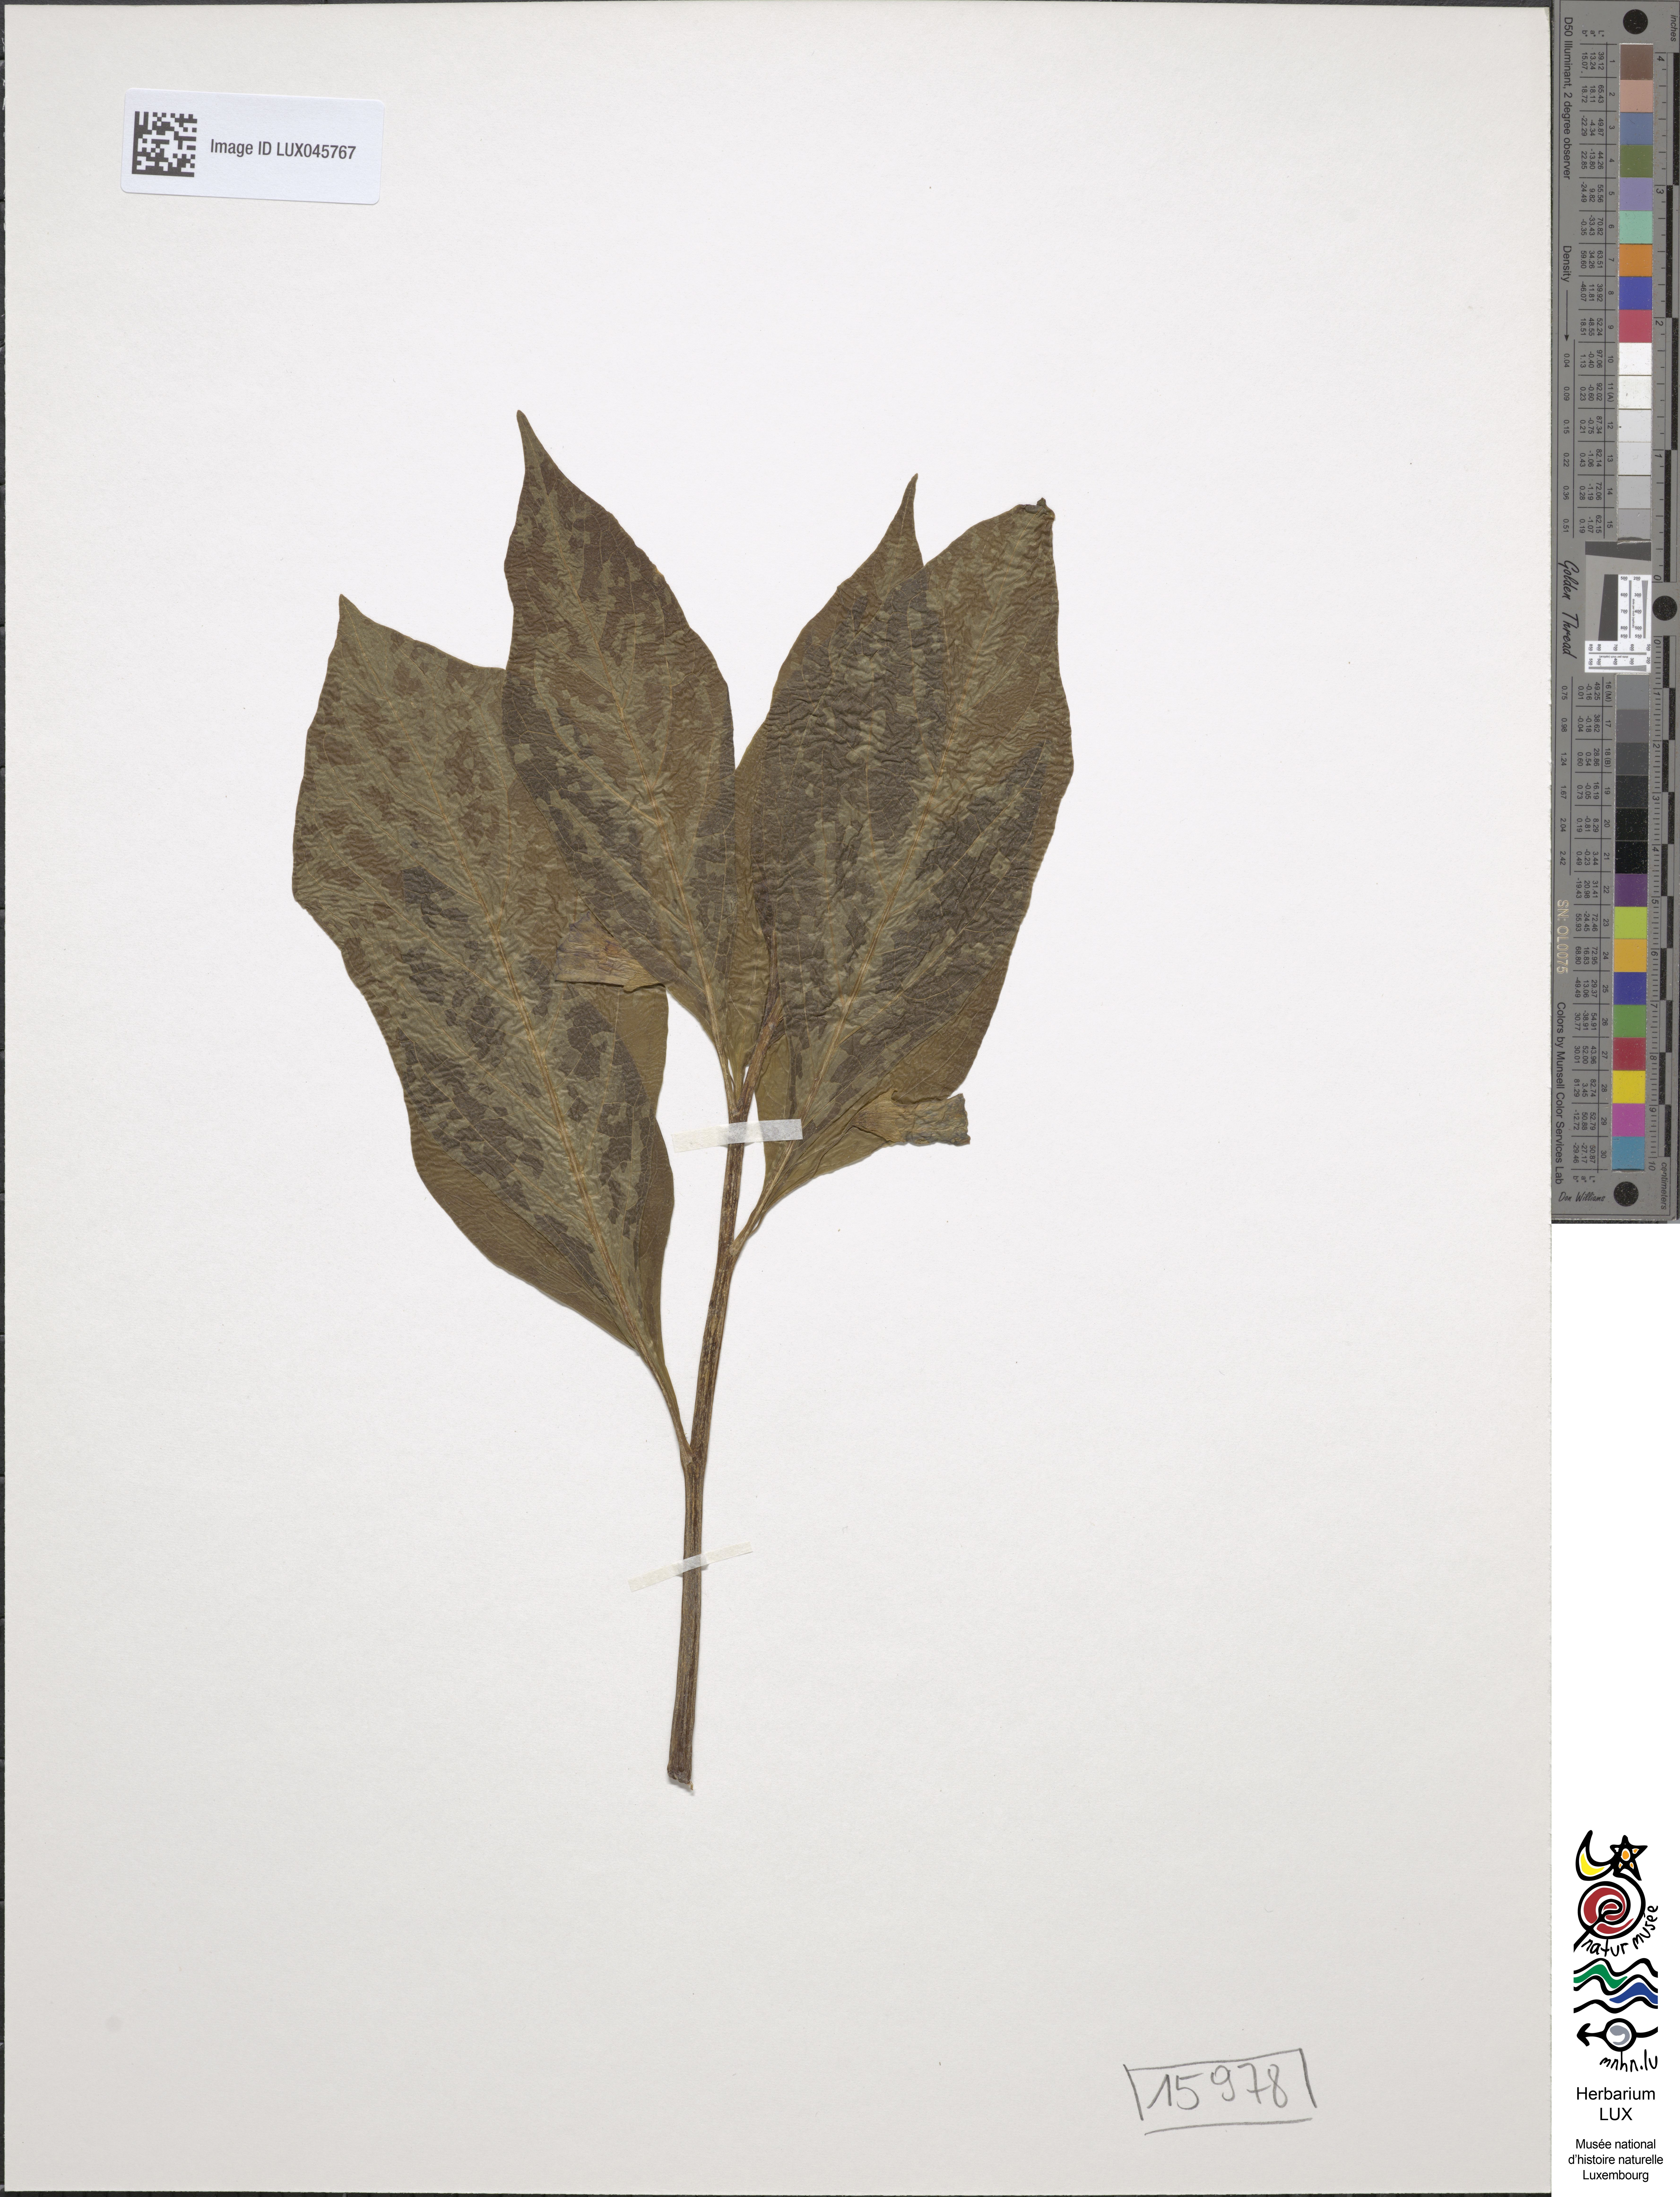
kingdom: Plantae
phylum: Tracheophyta
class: Magnoliopsida
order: Solanales
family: Solanaceae
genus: Scopolia
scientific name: Scopolia carniolica
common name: Scopolia
